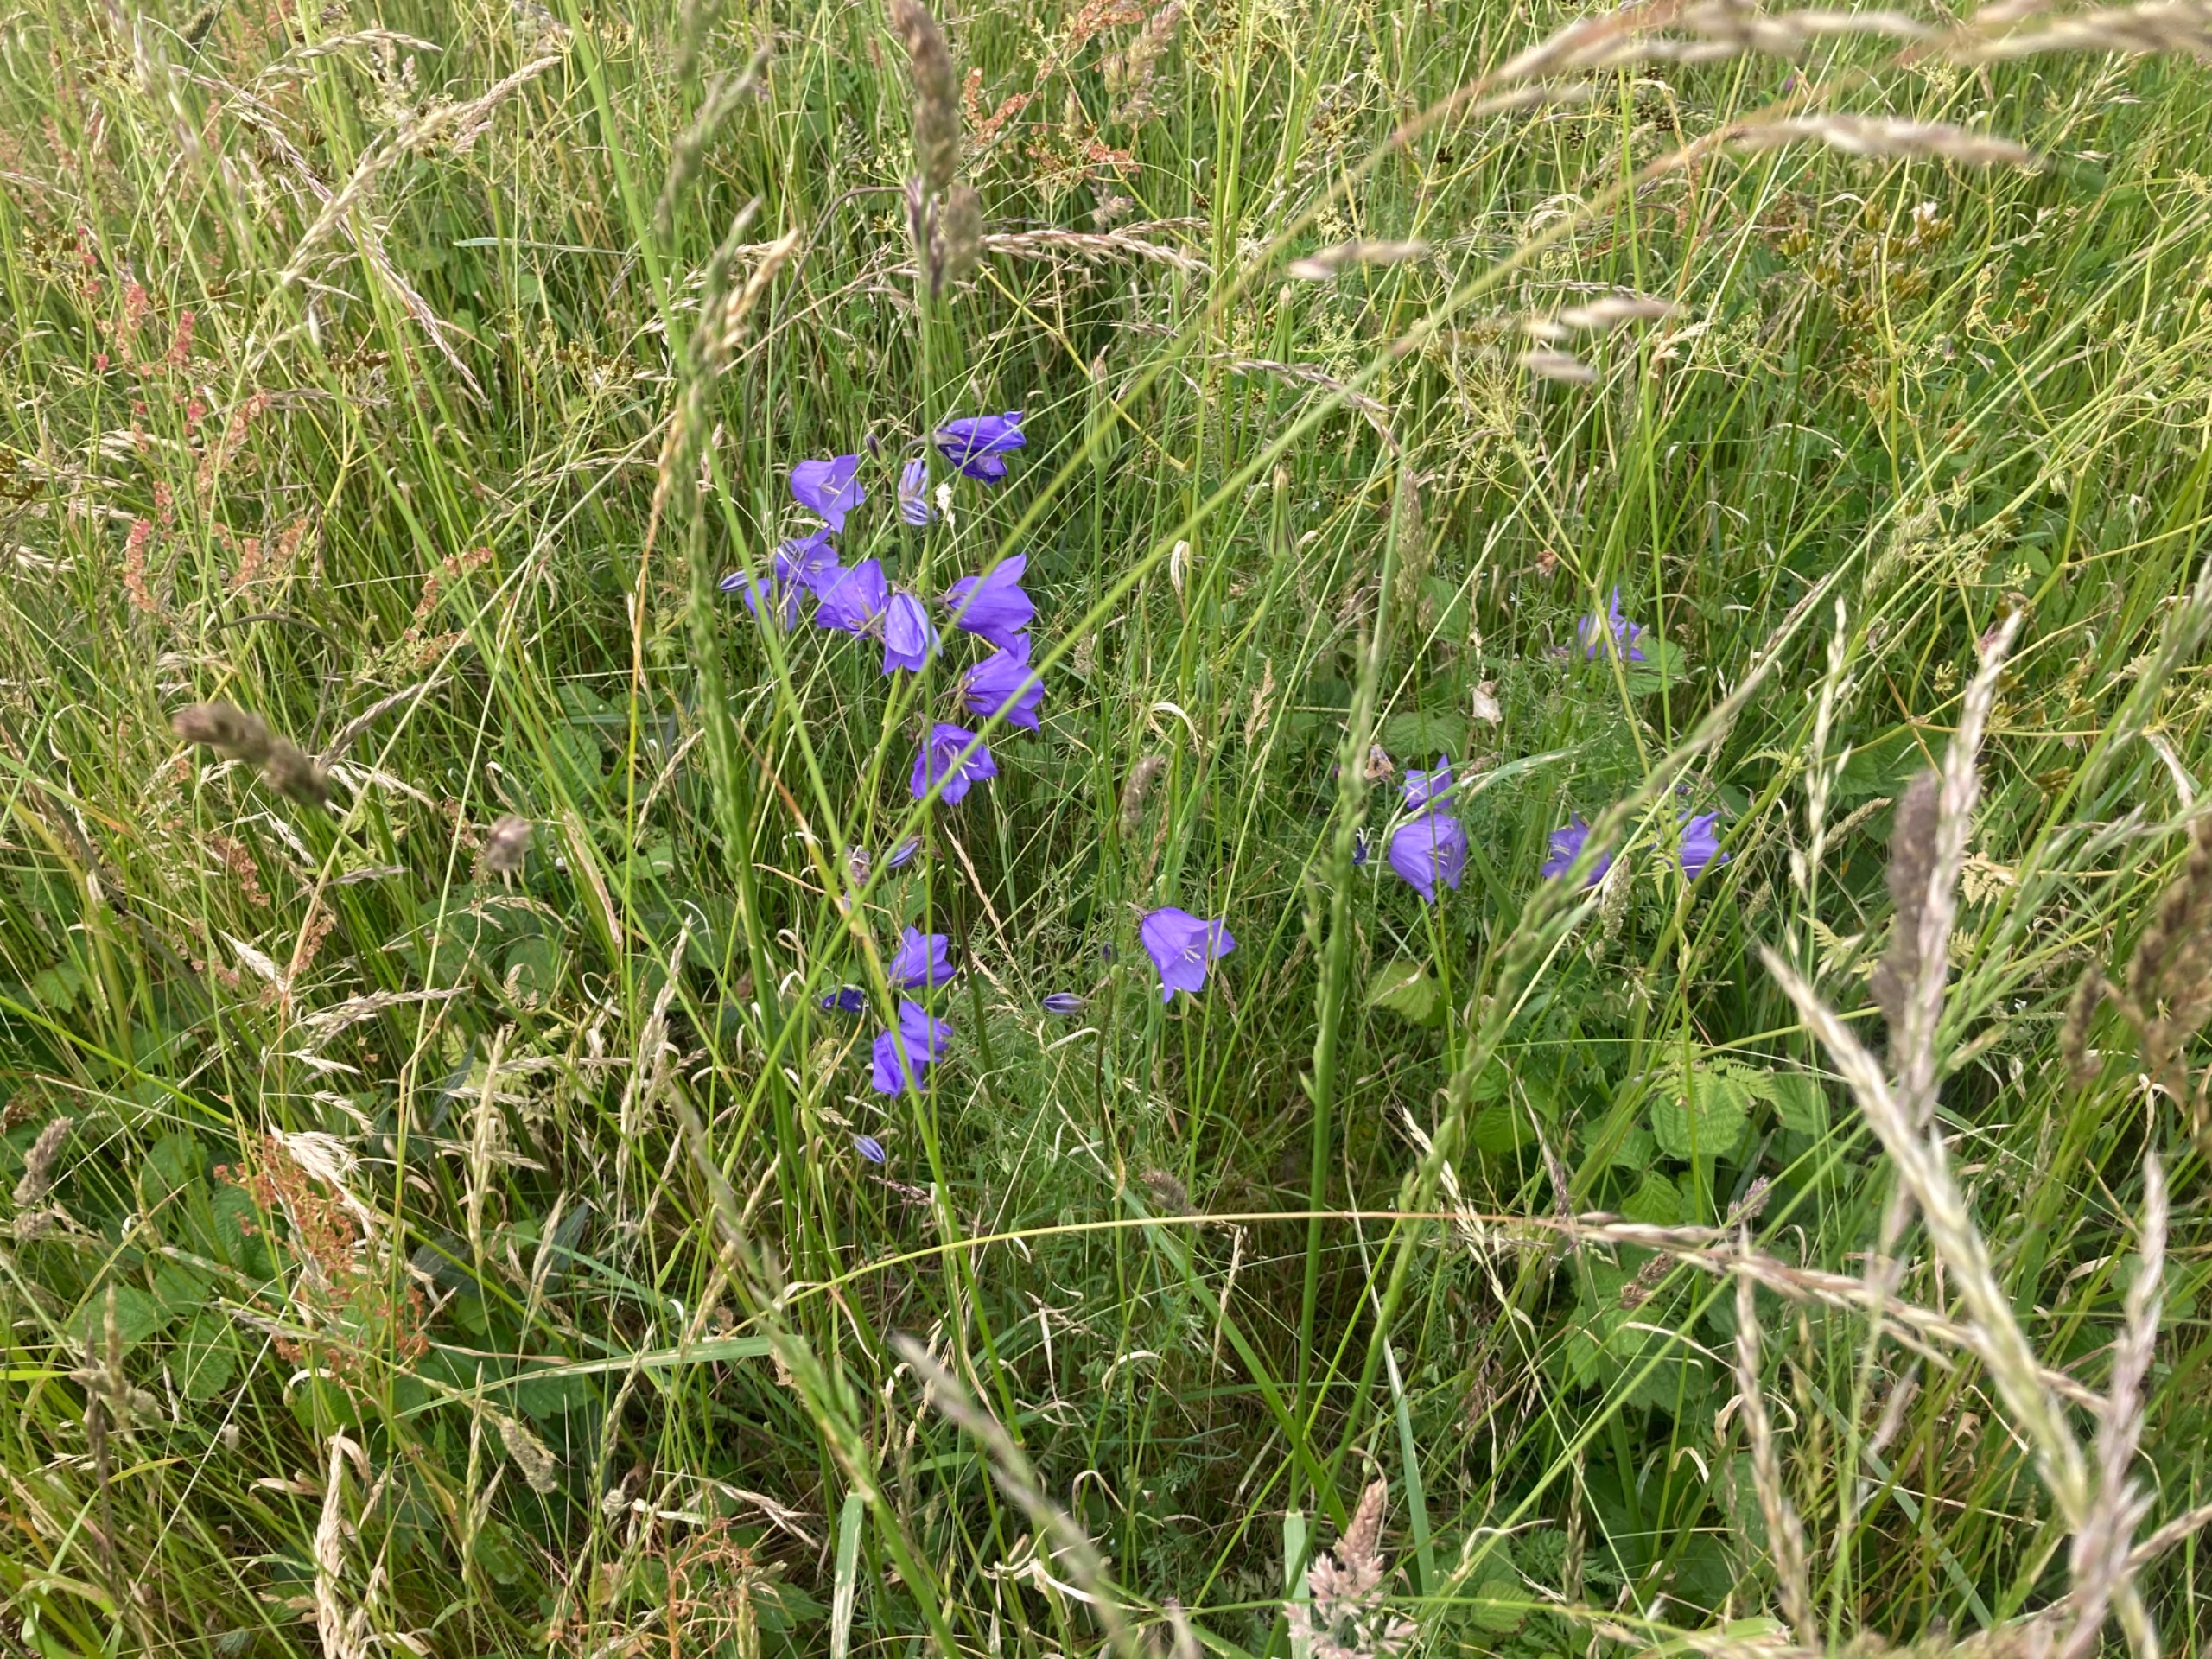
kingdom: Plantae
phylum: Tracheophyta
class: Magnoliopsida
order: Asterales
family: Campanulaceae
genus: Campanula
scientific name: Campanula persicifolia
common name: Smalbladet klokke
